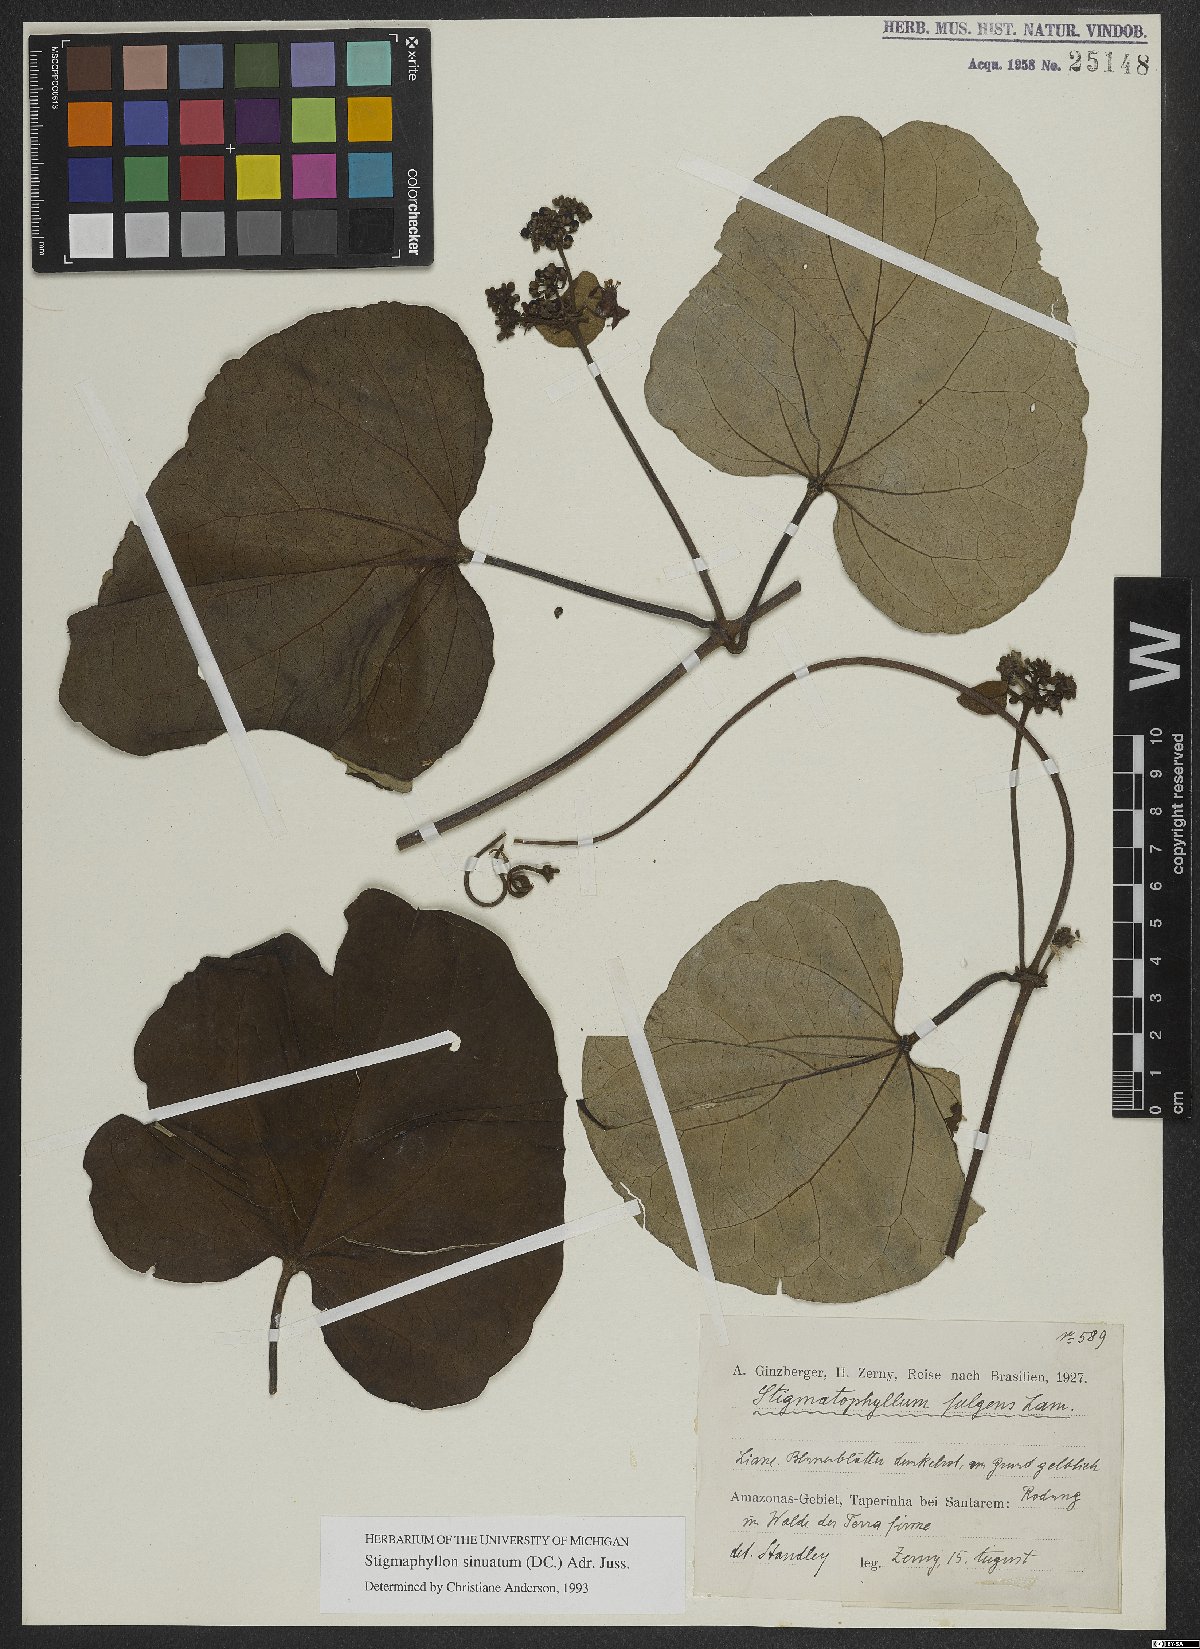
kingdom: Plantae
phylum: Tracheophyta
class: Magnoliopsida
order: Malpighiales
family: Malpighiaceae
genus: Stigmaphyllon
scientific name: Stigmaphyllon sinuatum
